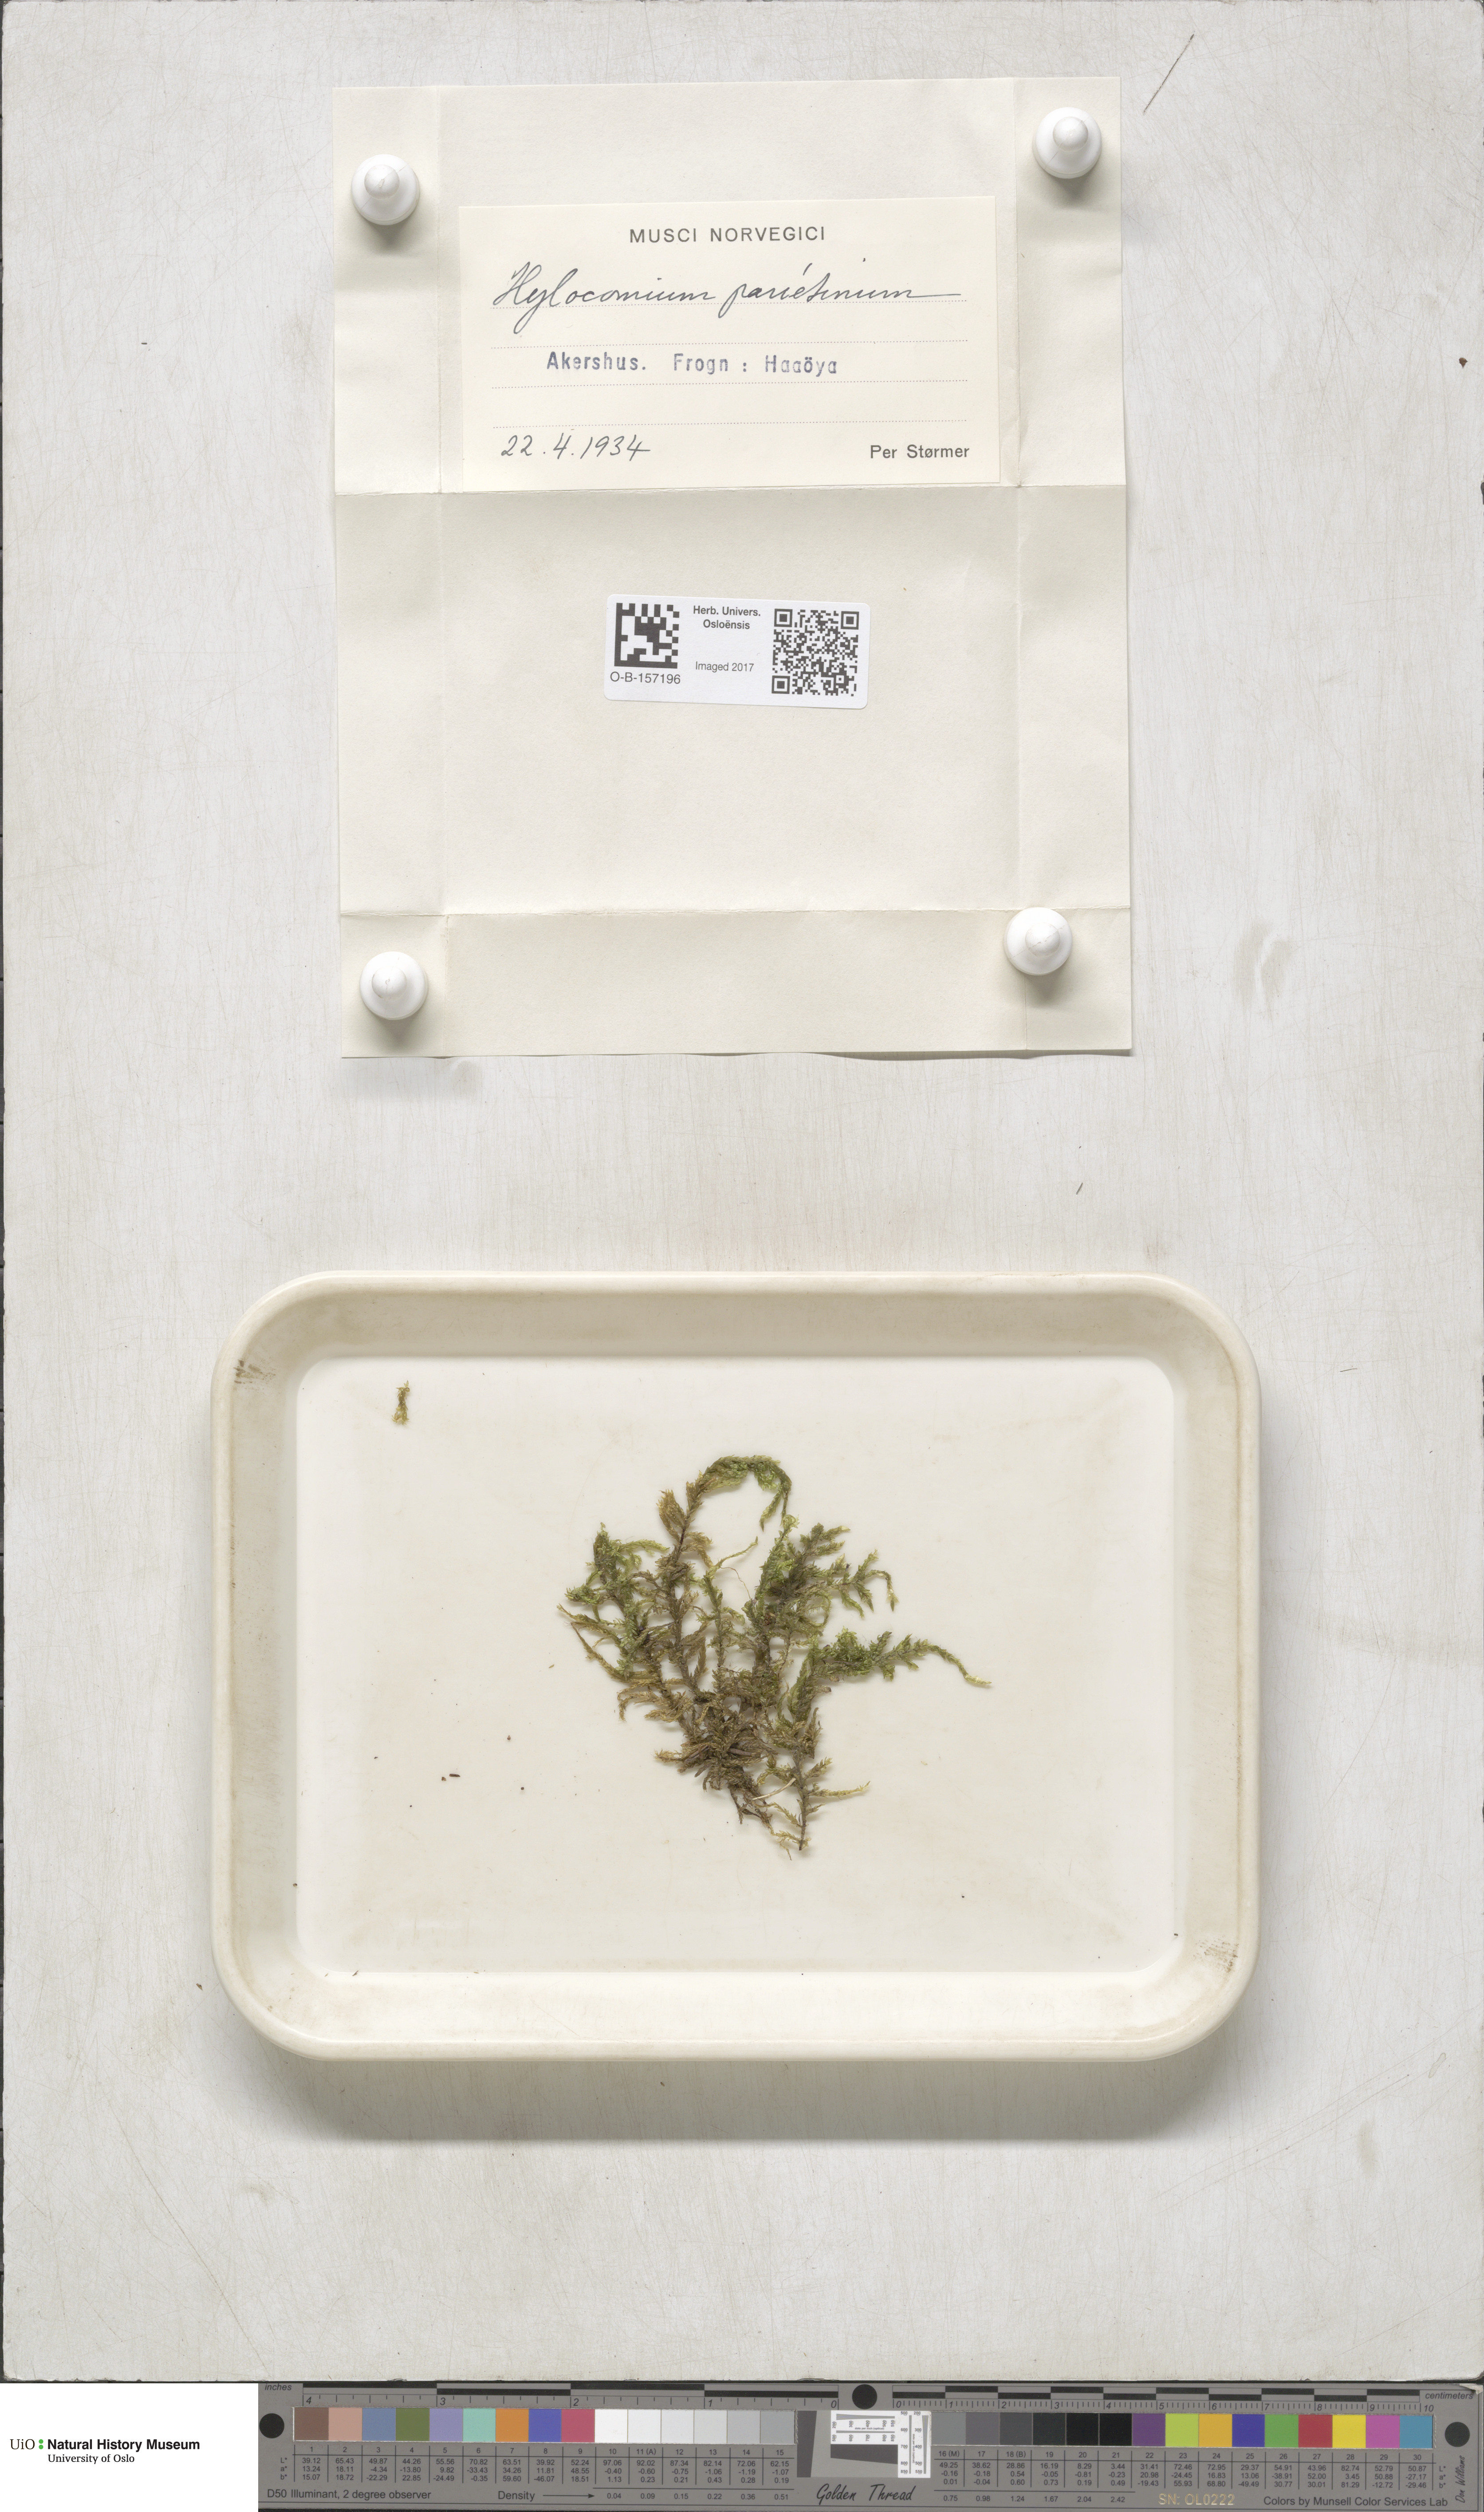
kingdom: Plantae
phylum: Bryophyta
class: Bryopsida
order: Hypnales
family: Hylocomiaceae
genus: Pleurozium
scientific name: Pleurozium schreberi
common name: Red-stemmed feather moss
